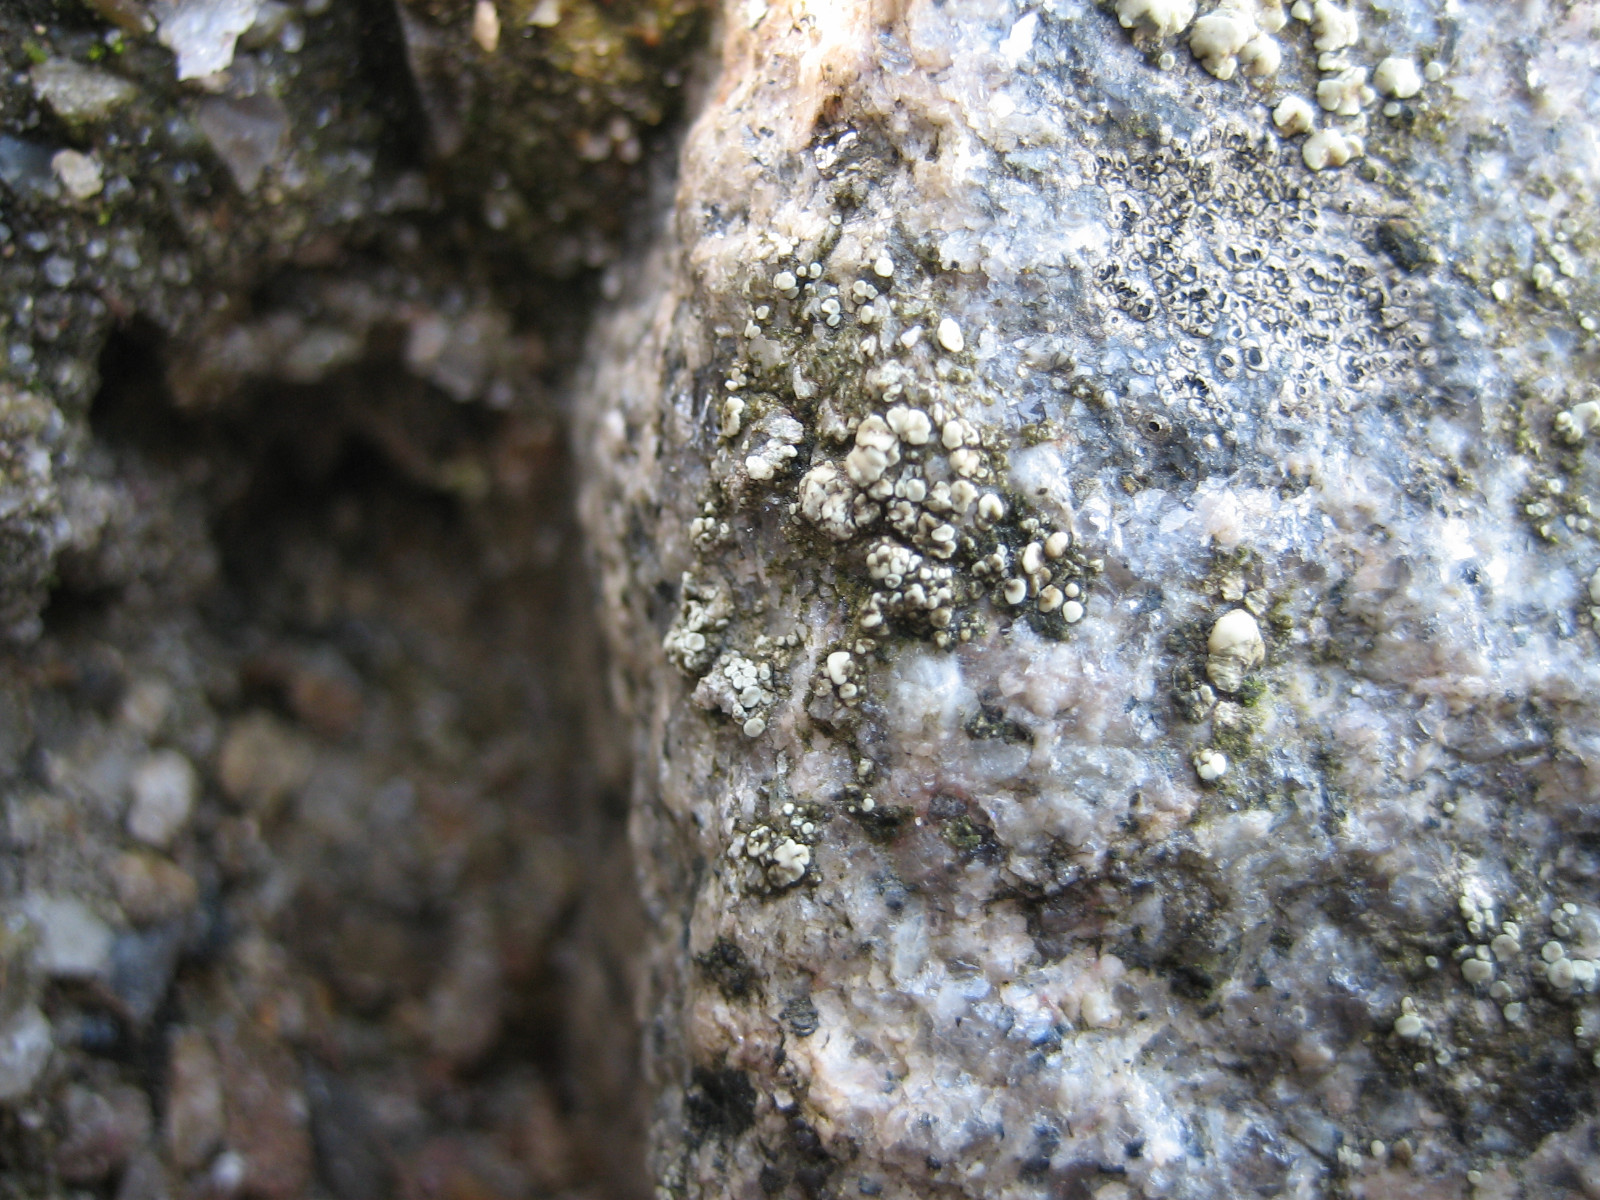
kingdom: Fungi
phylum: Ascomycota
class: Lecanoromycetes
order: Lecanorales
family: Lecanoraceae
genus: Lecanora
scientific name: Lecanora polytropa
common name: bleggrøn kantskivelav
